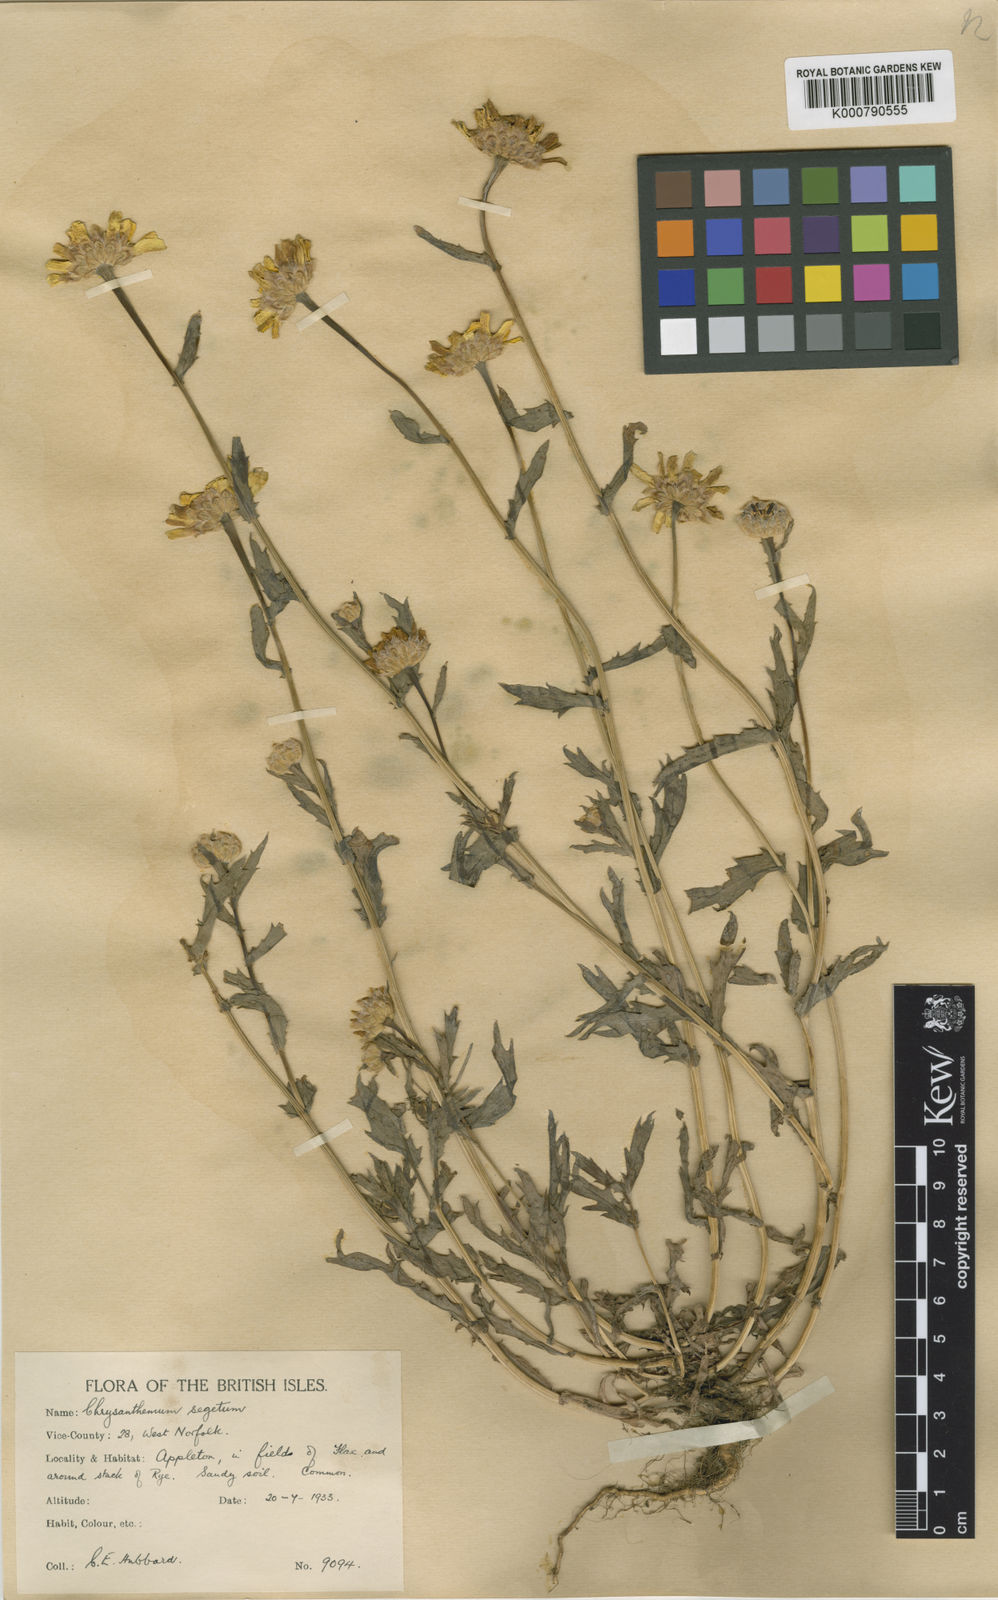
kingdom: Plantae
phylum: Tracheophyta
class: Magnoliopsida
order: Asterales
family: Asteraceae
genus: Glebionis
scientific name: Glebionis
